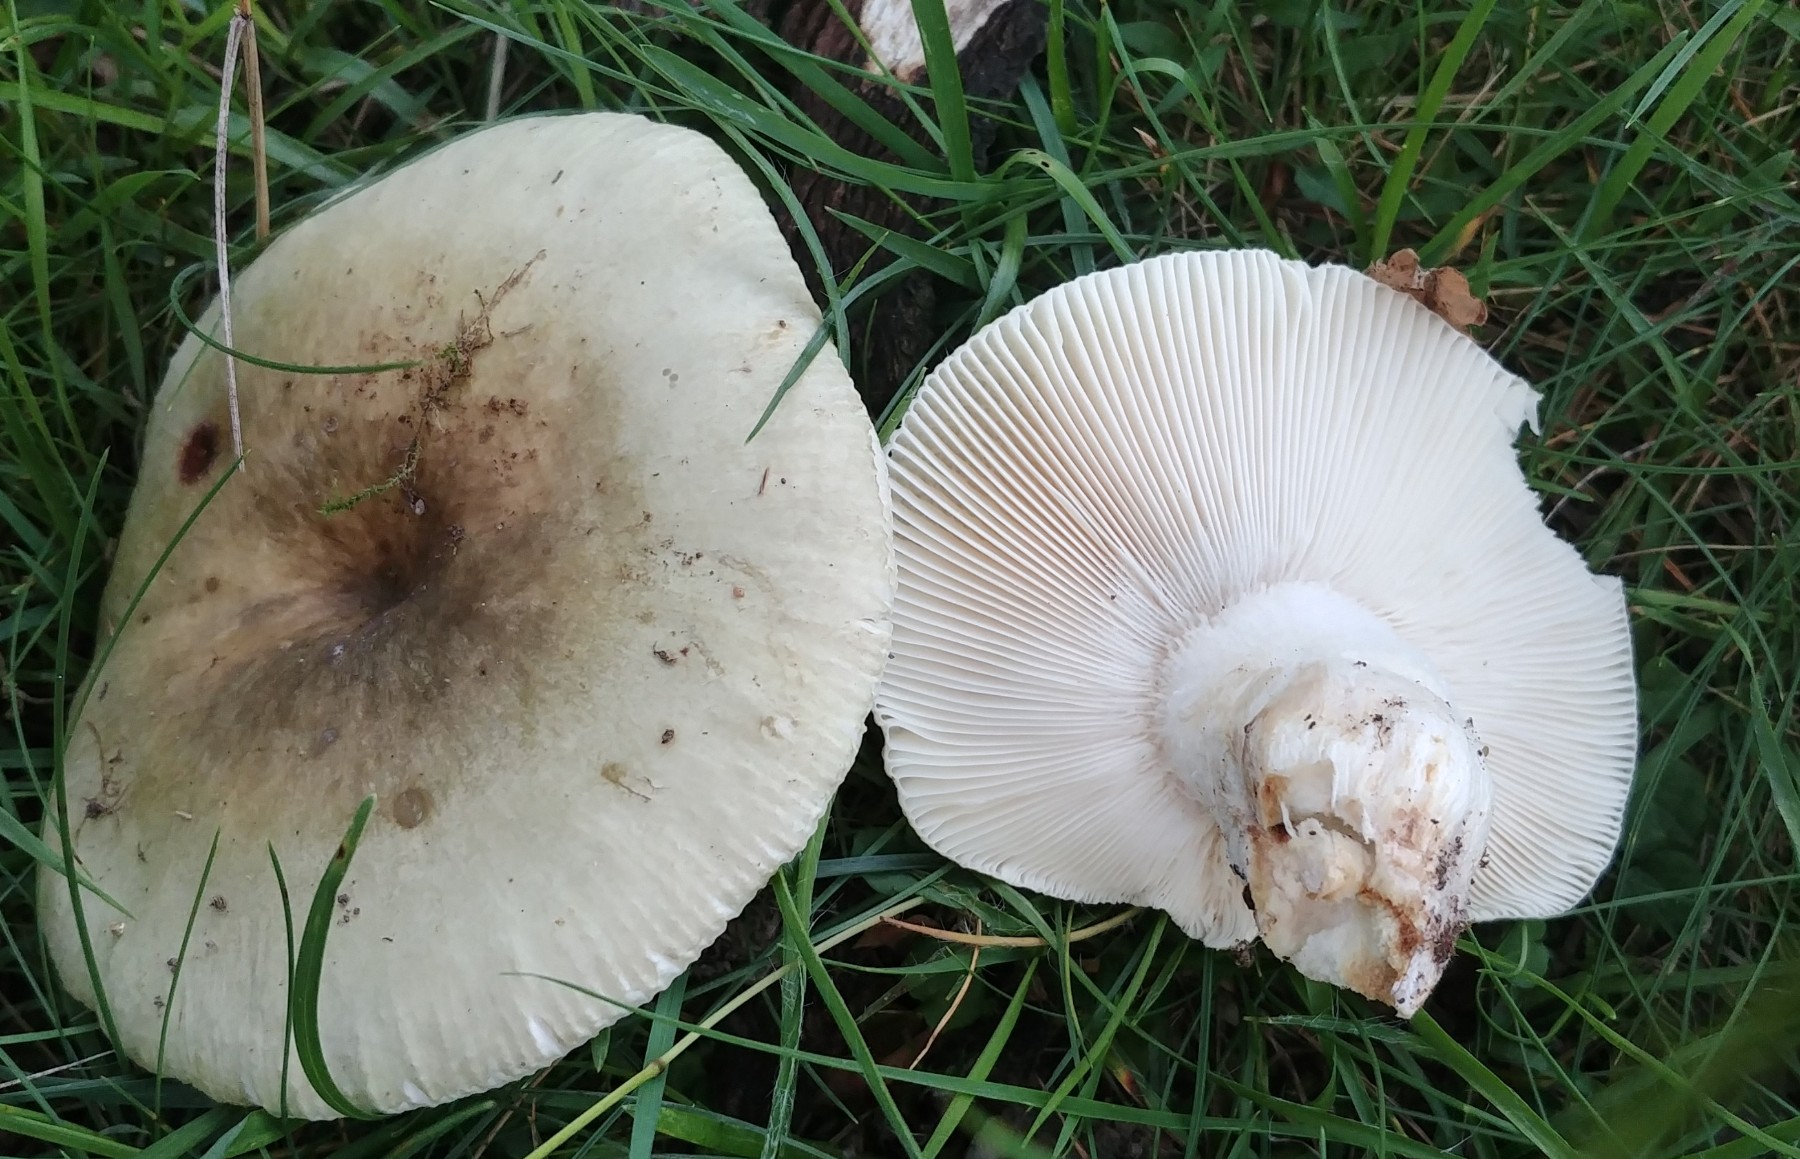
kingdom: Fungi
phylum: Basidiomycota
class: Agaricomycetes
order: Russulales
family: Russulaceae
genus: Russula
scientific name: Russula aeruginea
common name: græsgrøn skørhat
